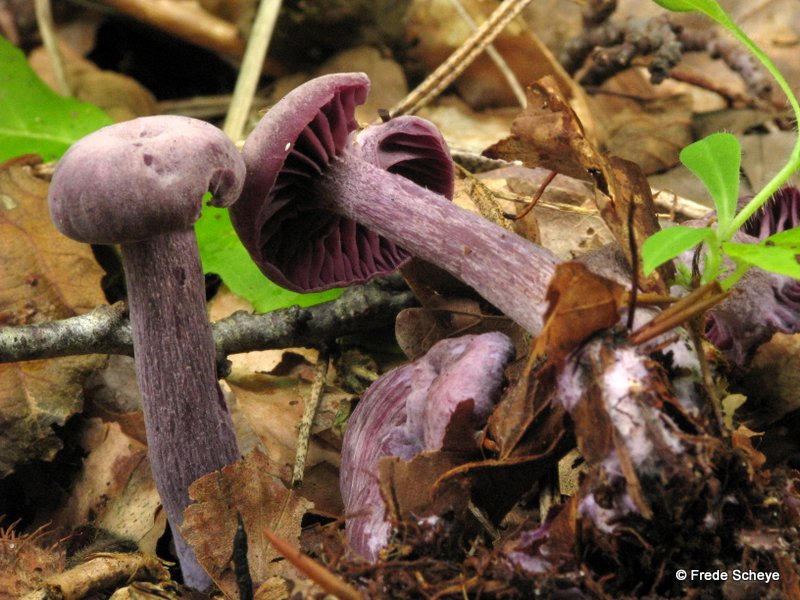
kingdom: Fungi
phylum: Basidiomycota
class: Agaricomycetes
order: Agaricales
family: Hydnangiaceae
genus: Laccaria
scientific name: Laccaria amethystina
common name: violet ametysthat
